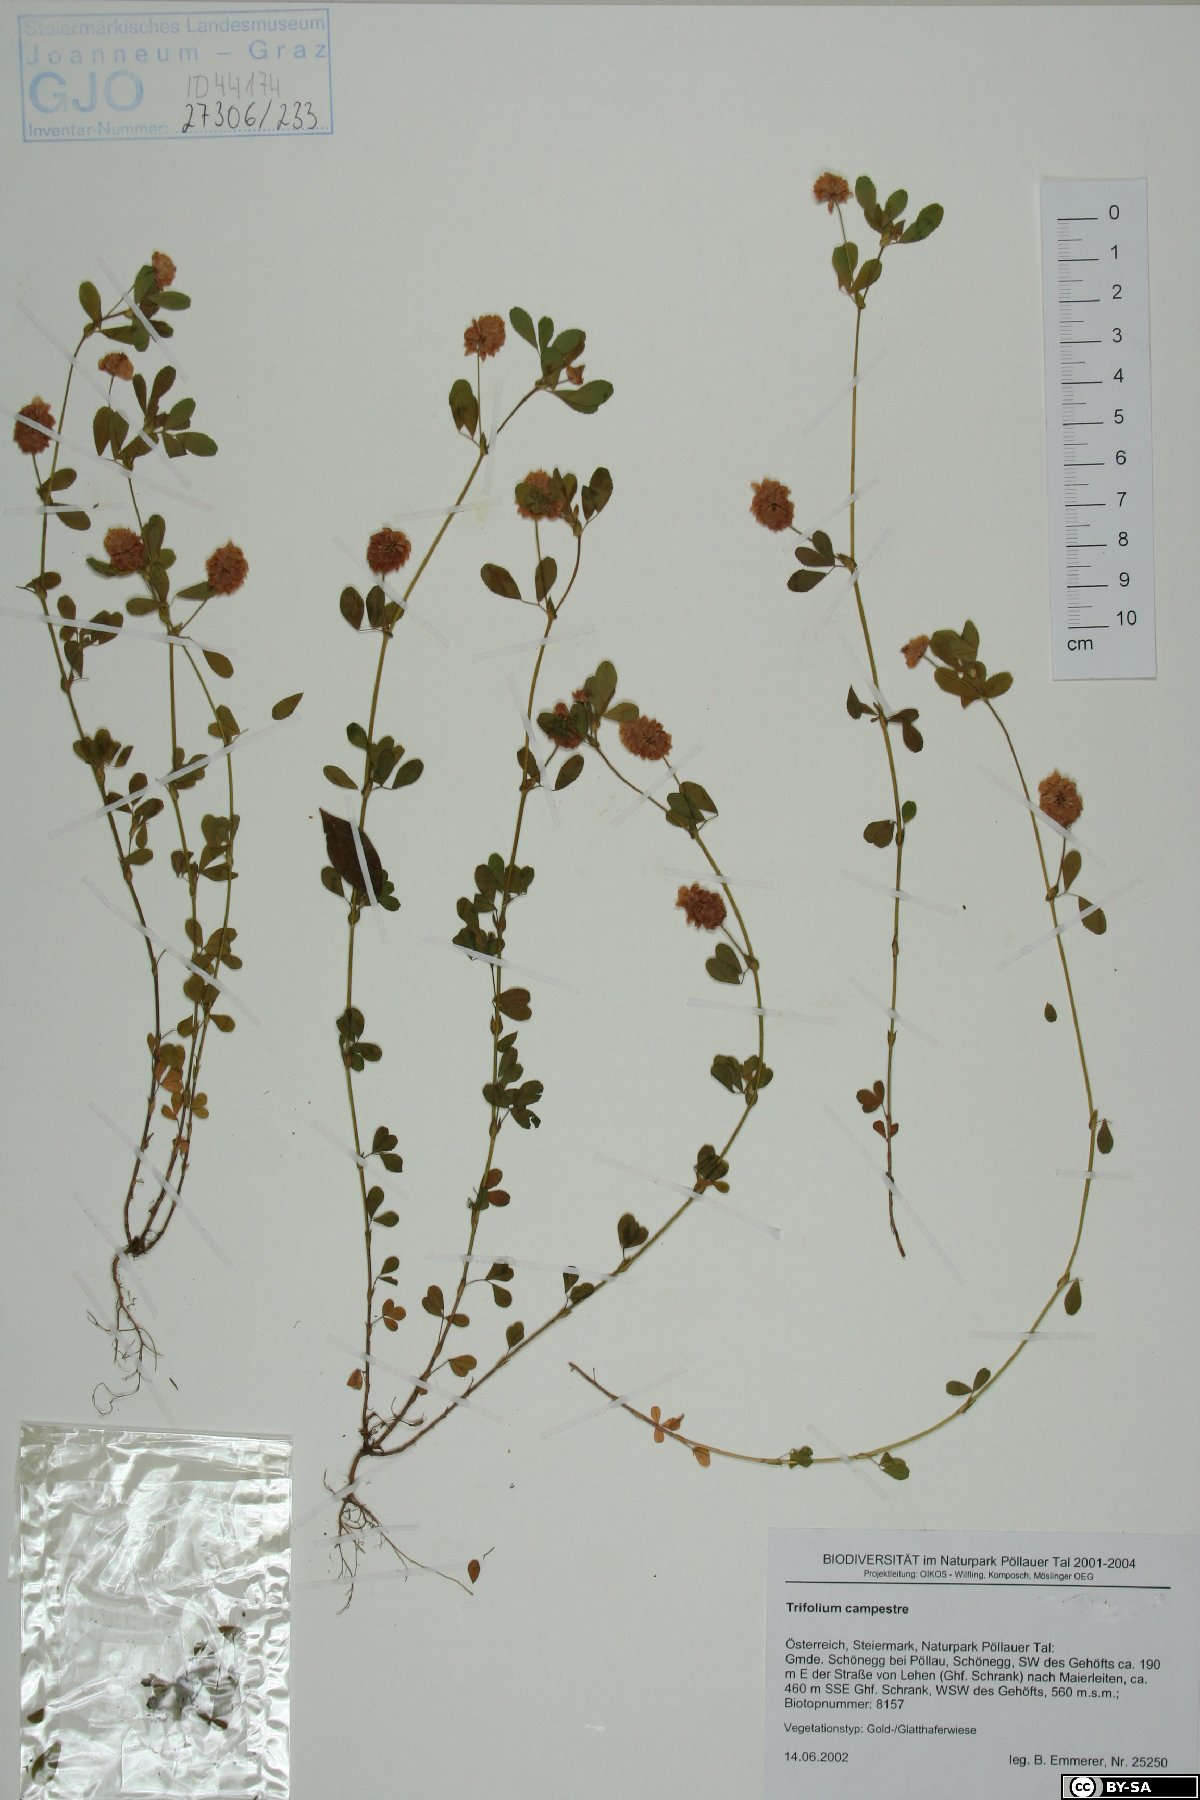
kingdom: Plantae
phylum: Tracheophyta
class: Magnoliopsida
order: Fabales
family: Fabaceae
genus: Trifolium
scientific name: Trifolium campestre
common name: Field clover
